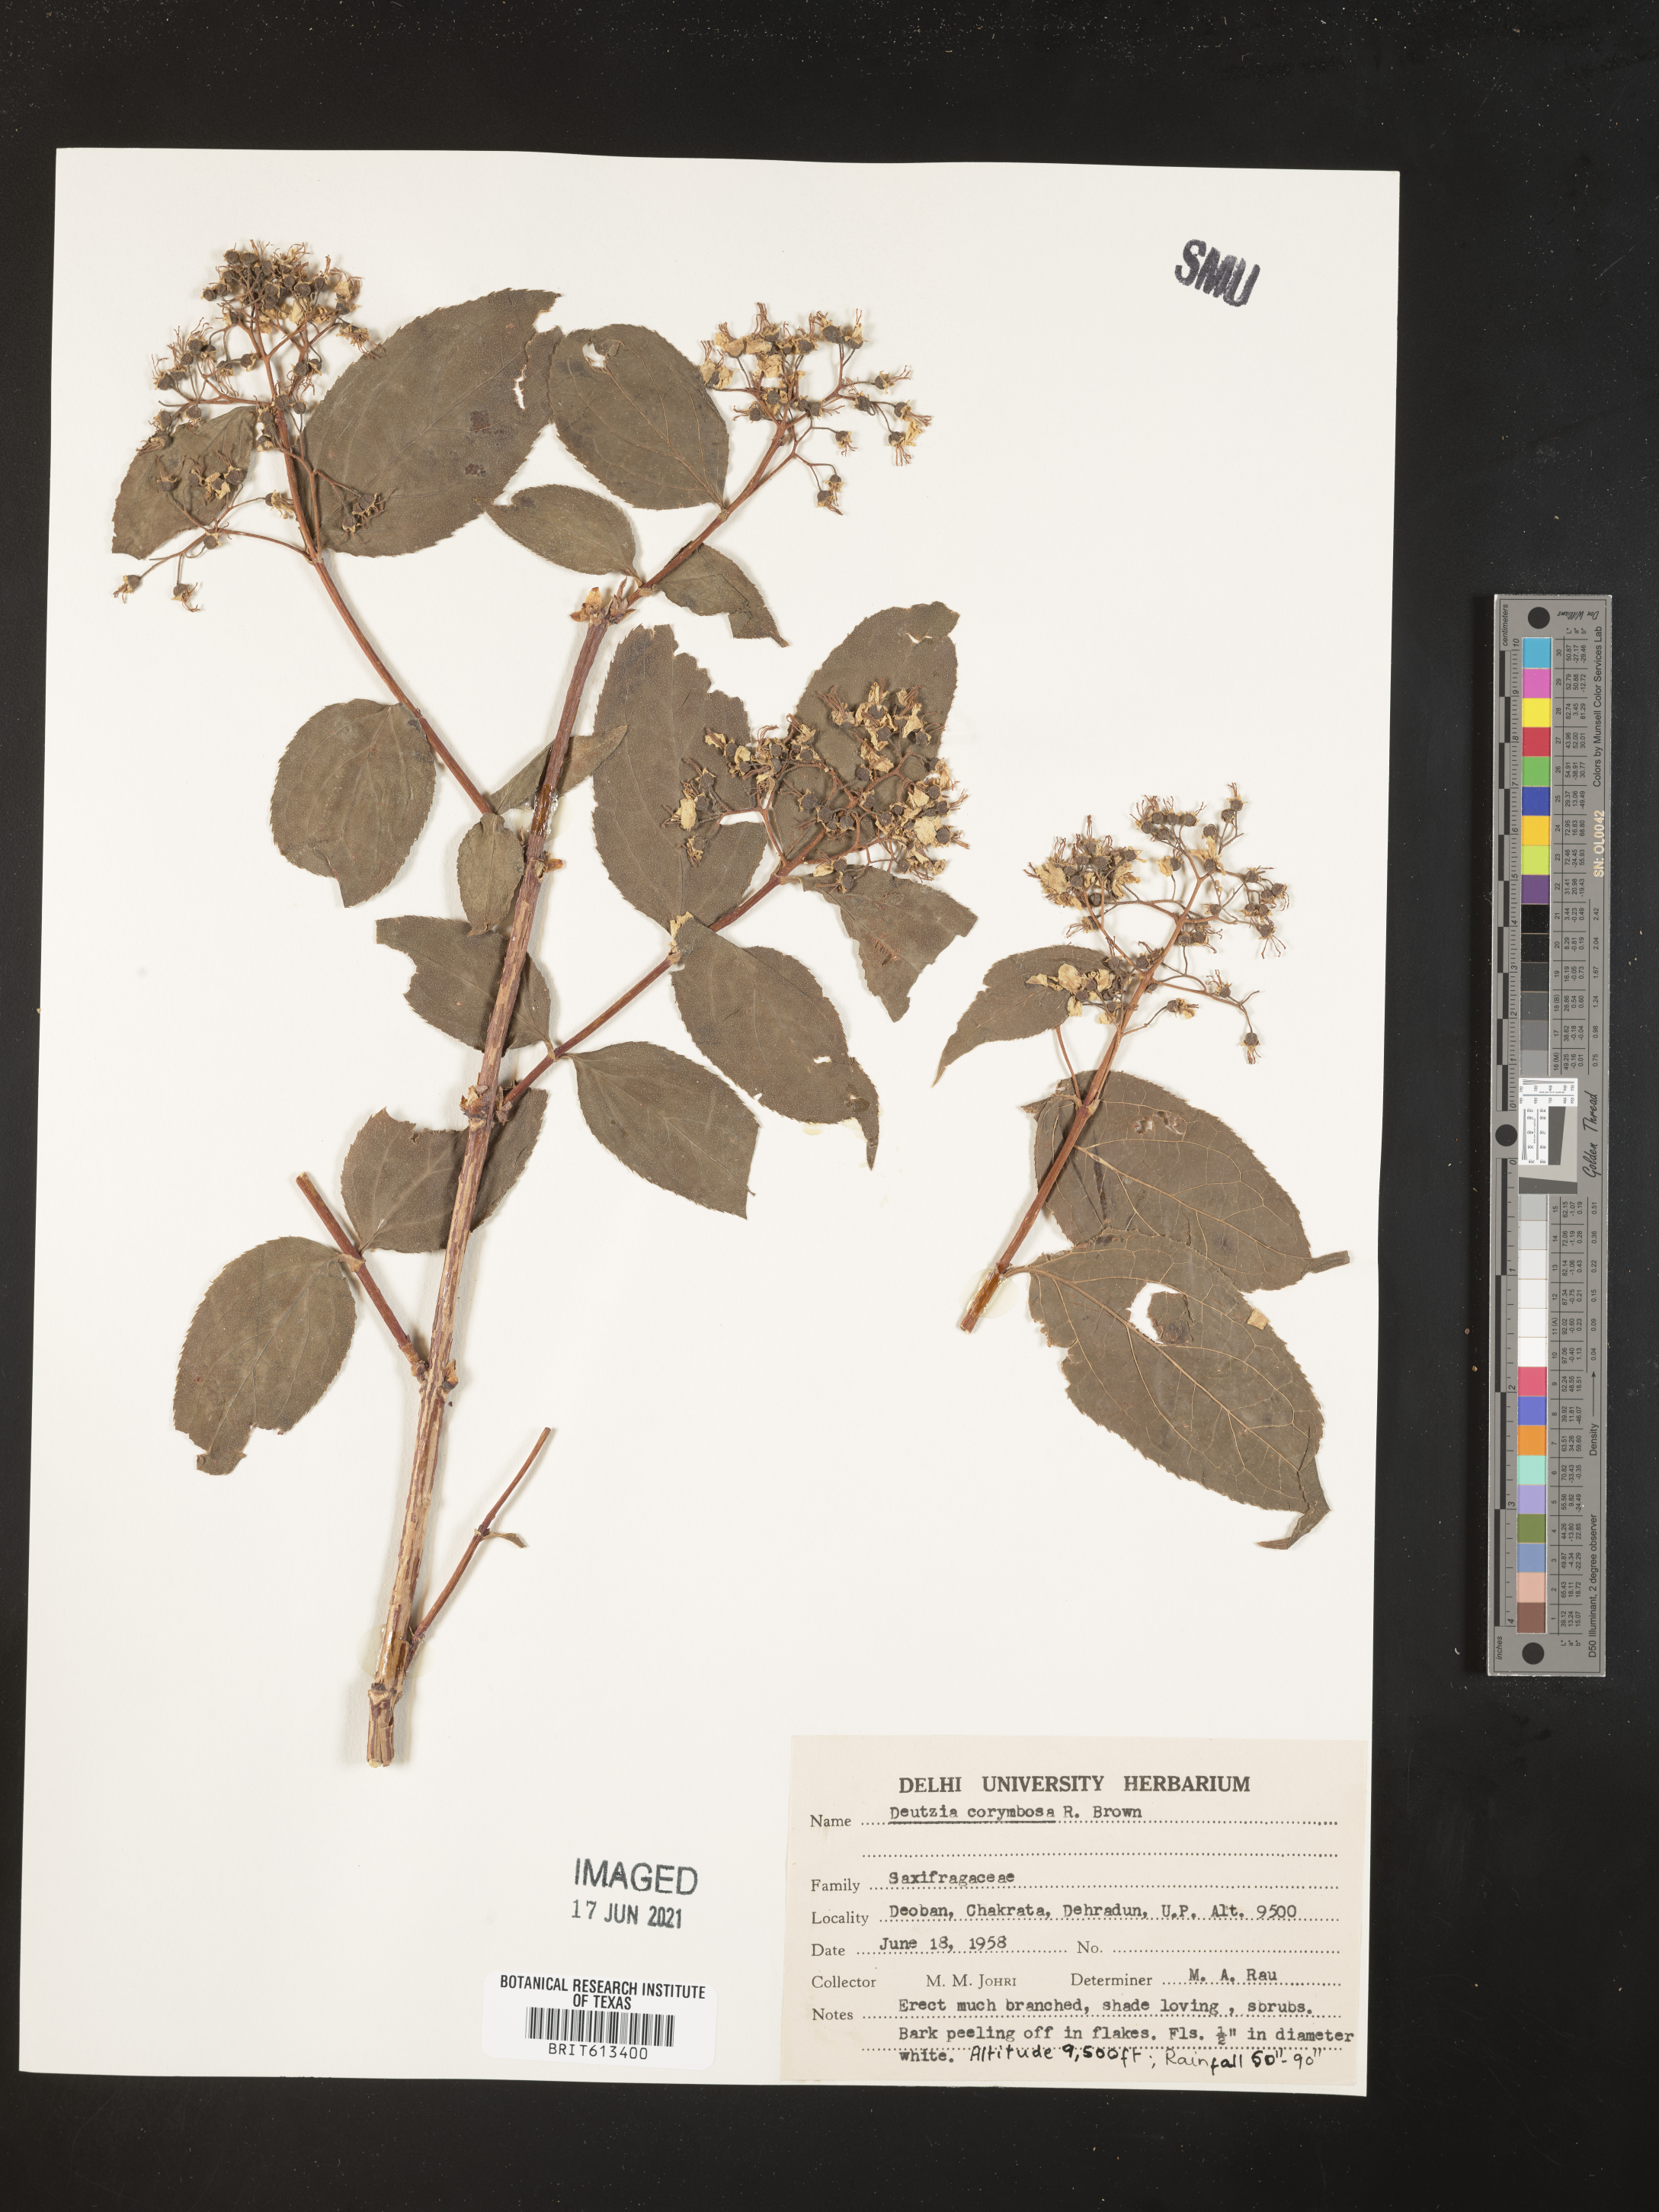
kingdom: Plantae
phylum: Tracheophyta
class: Magnoliopsida
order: Cornales
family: Hydrangeaceae
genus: Deutzia
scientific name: Deutzia hookeriana
